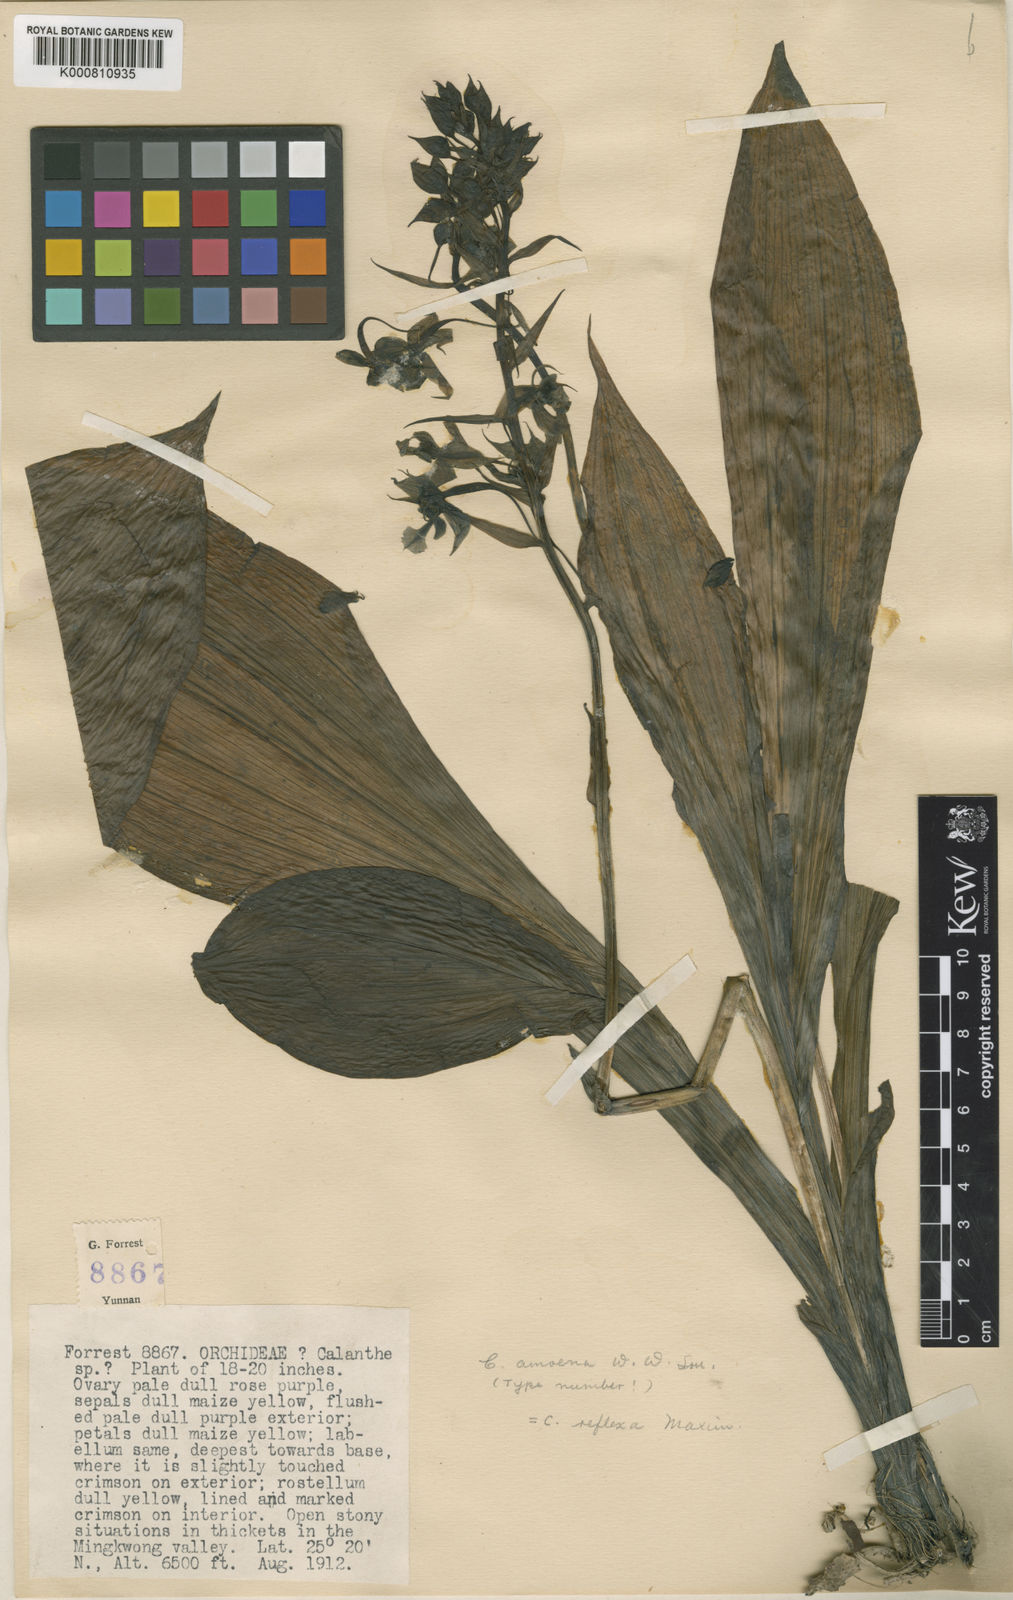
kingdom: Plantae
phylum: Tracheophyta
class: Liliopsida
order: Asparagales
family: Orchidaceae
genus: Calanthe
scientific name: Calanthe puberula
